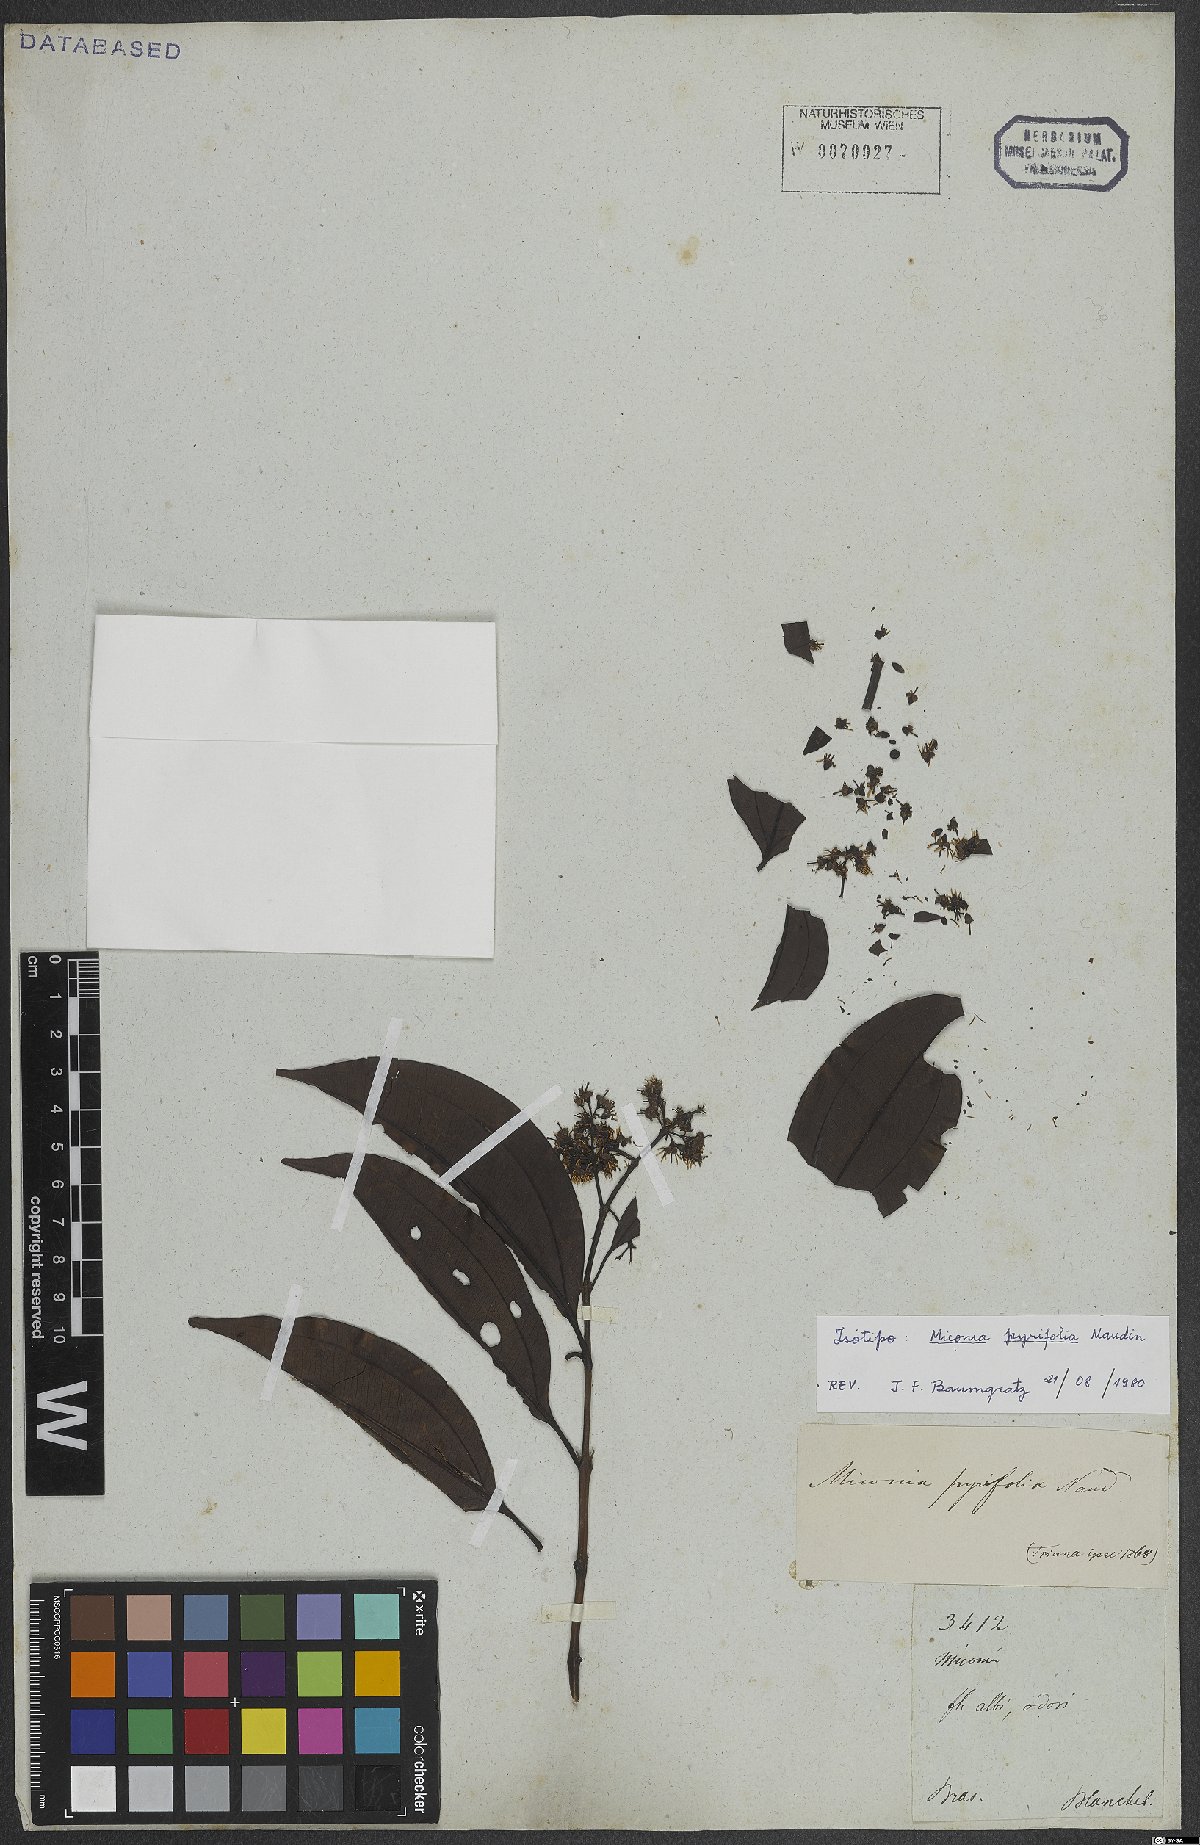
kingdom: Plantae
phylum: Tracheophyta
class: Magnoliopsida
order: Myrtales
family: Melastomataceae
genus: Miconia
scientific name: Miconia pyrifolia
